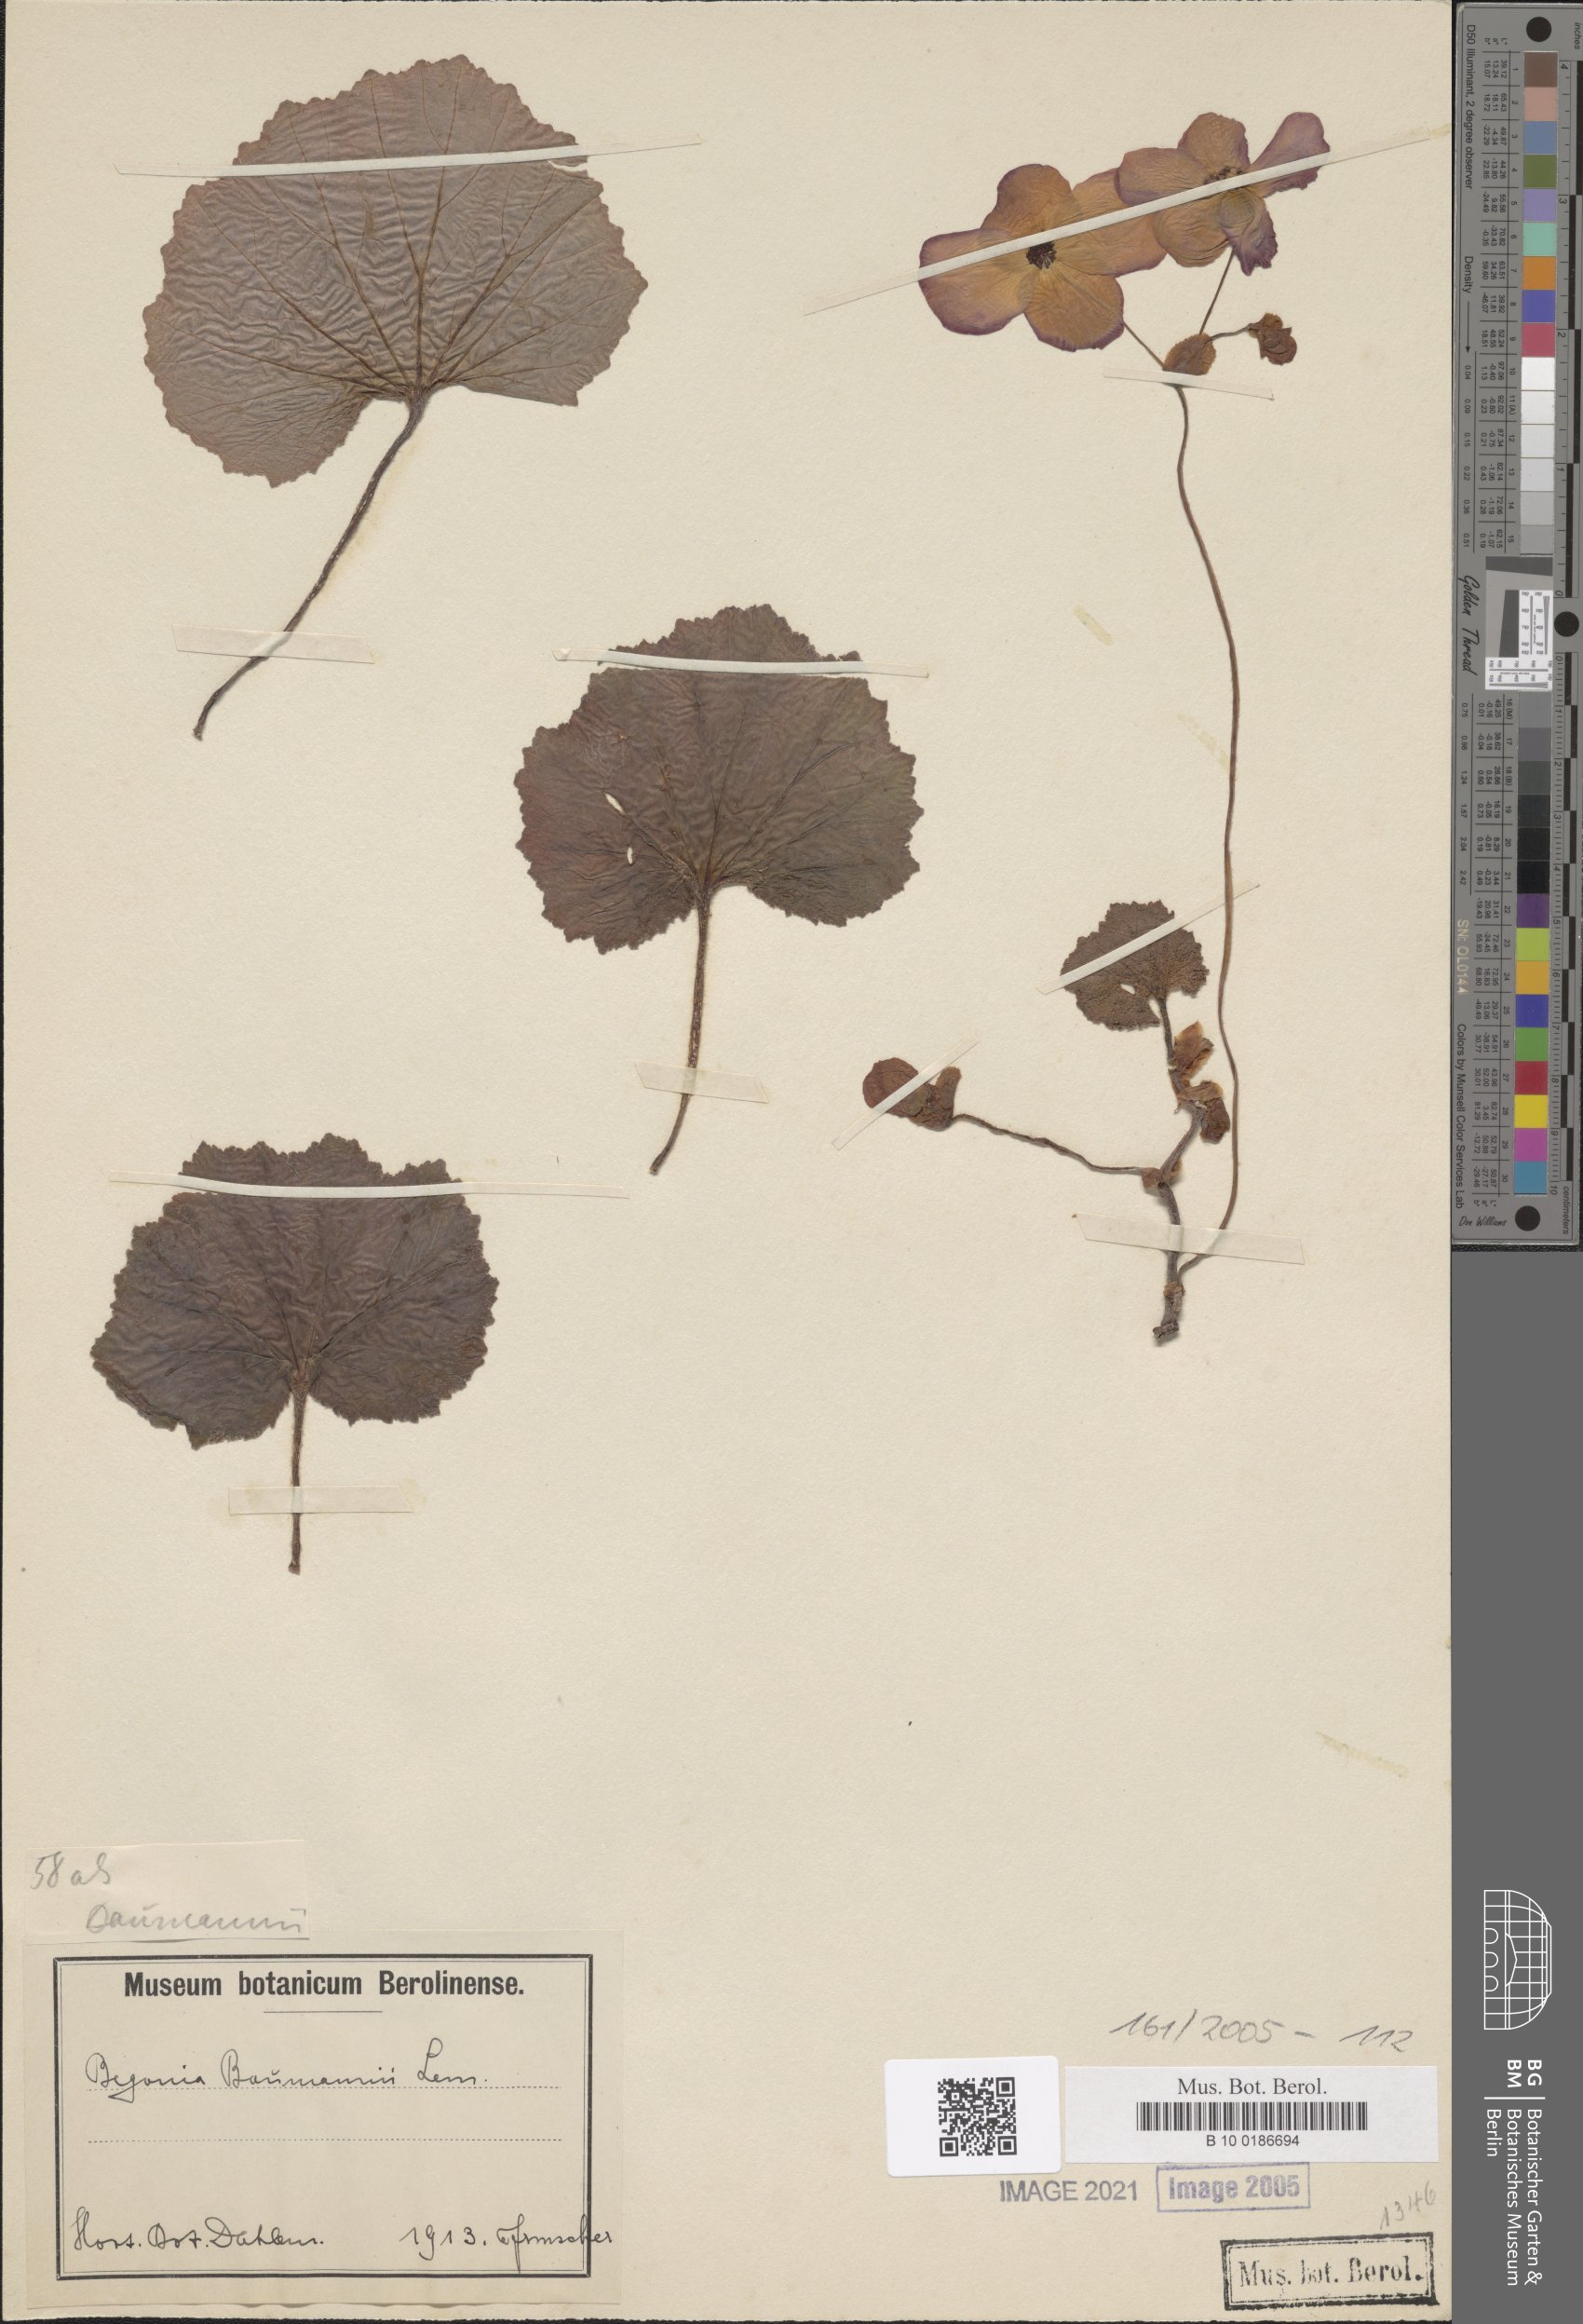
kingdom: Plantae
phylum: Tracheophyta
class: Magnoliopsida
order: Cucurbitales
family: Begoniaceae
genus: Begonia
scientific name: Begonia veitchii
